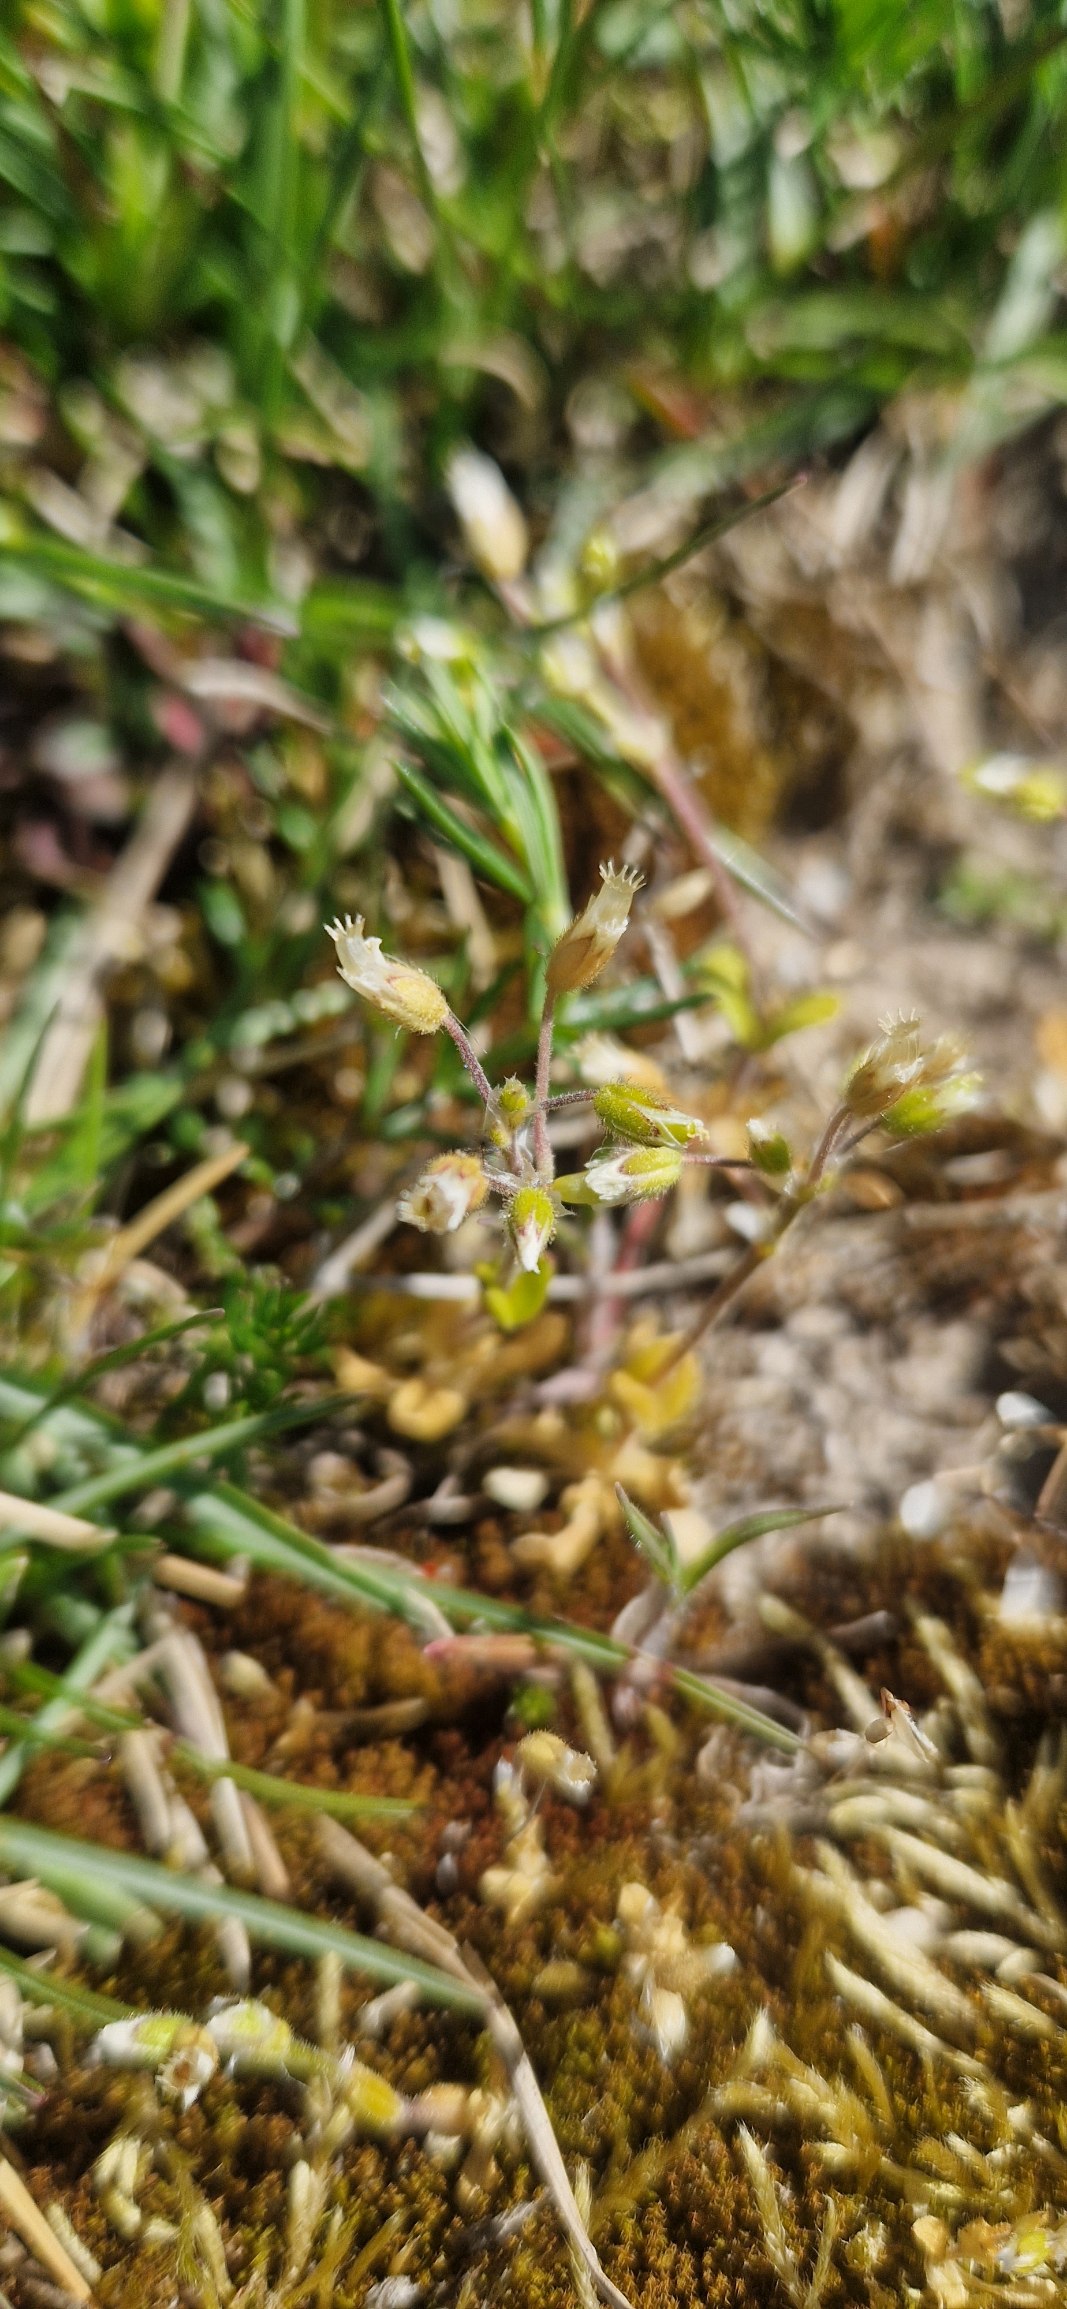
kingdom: Plantae
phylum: Tracheophyta
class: Magnoliopsida
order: Caryophyllales
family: Caryophyllaceae
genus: Cerastium
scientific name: Cerastium semidecandrum
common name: Femhannet hønsetarm
